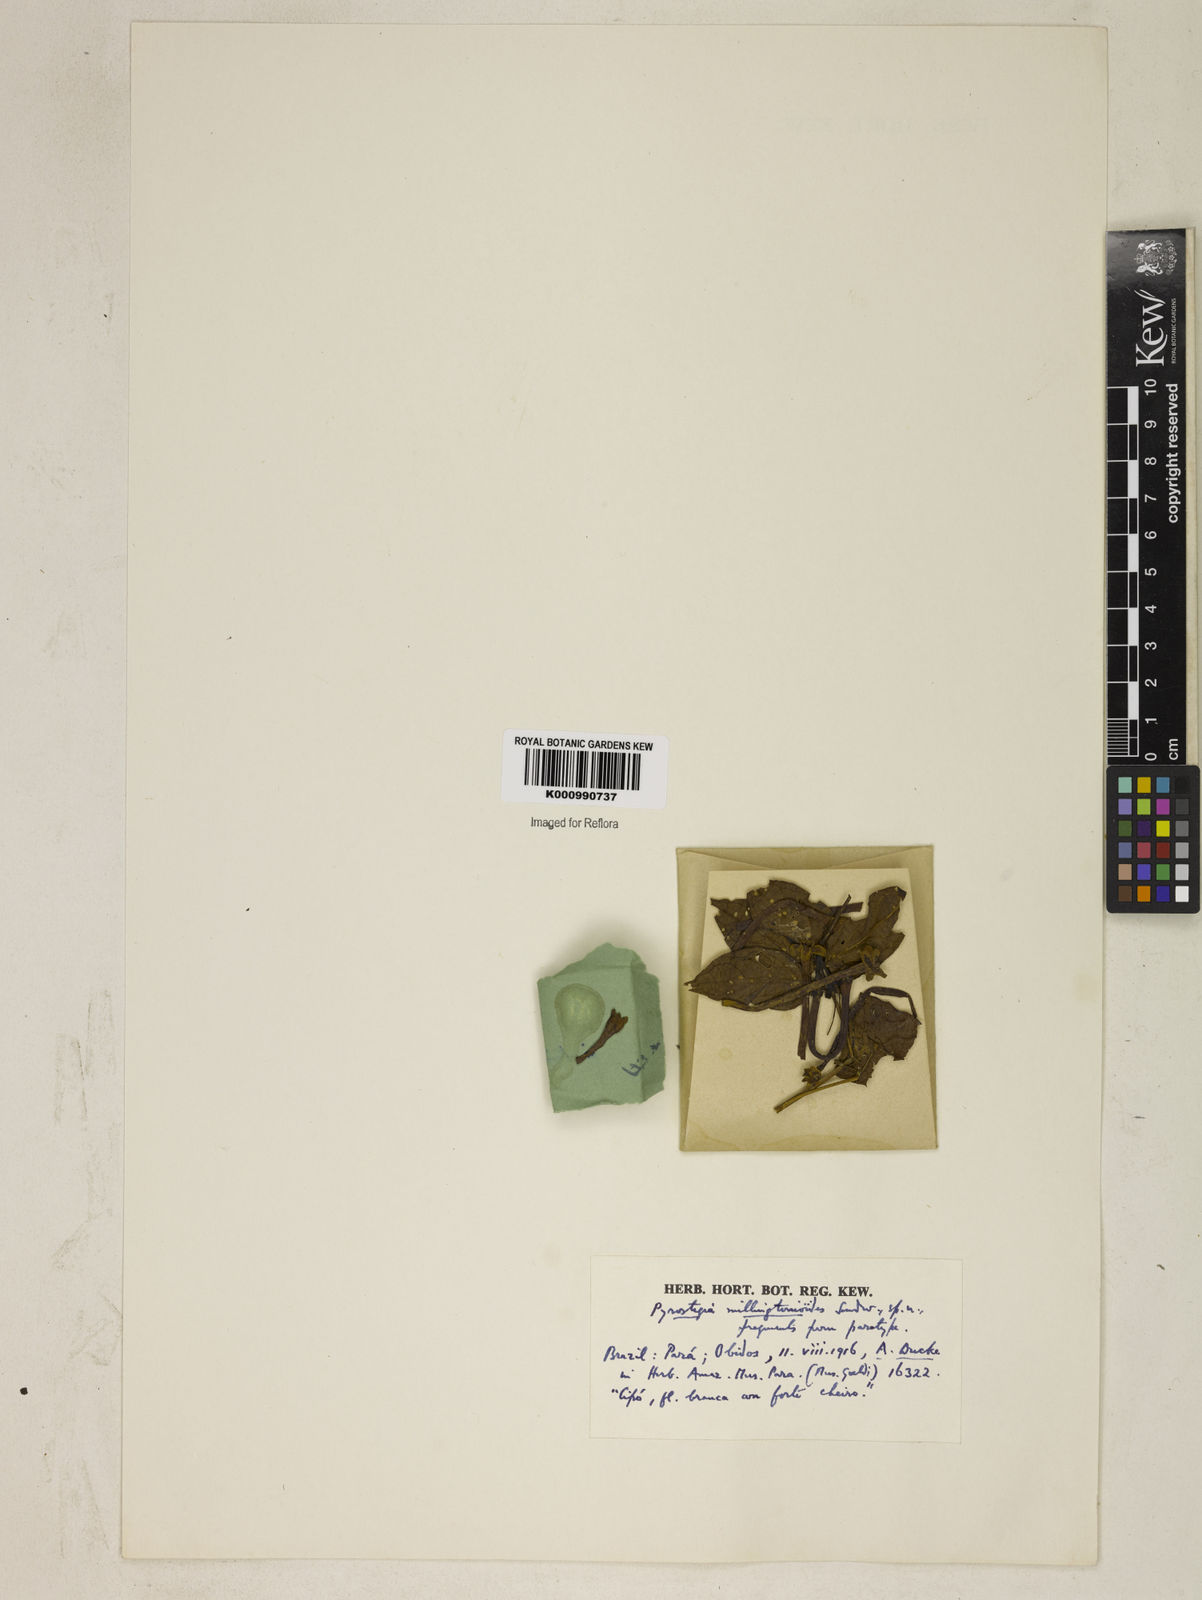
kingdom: Plantae
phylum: Tracheophyta
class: Magnoliopsida
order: Lamiales
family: Bignoniaceae
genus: Pyrostegia
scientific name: Pyrostegia millingtonioides
